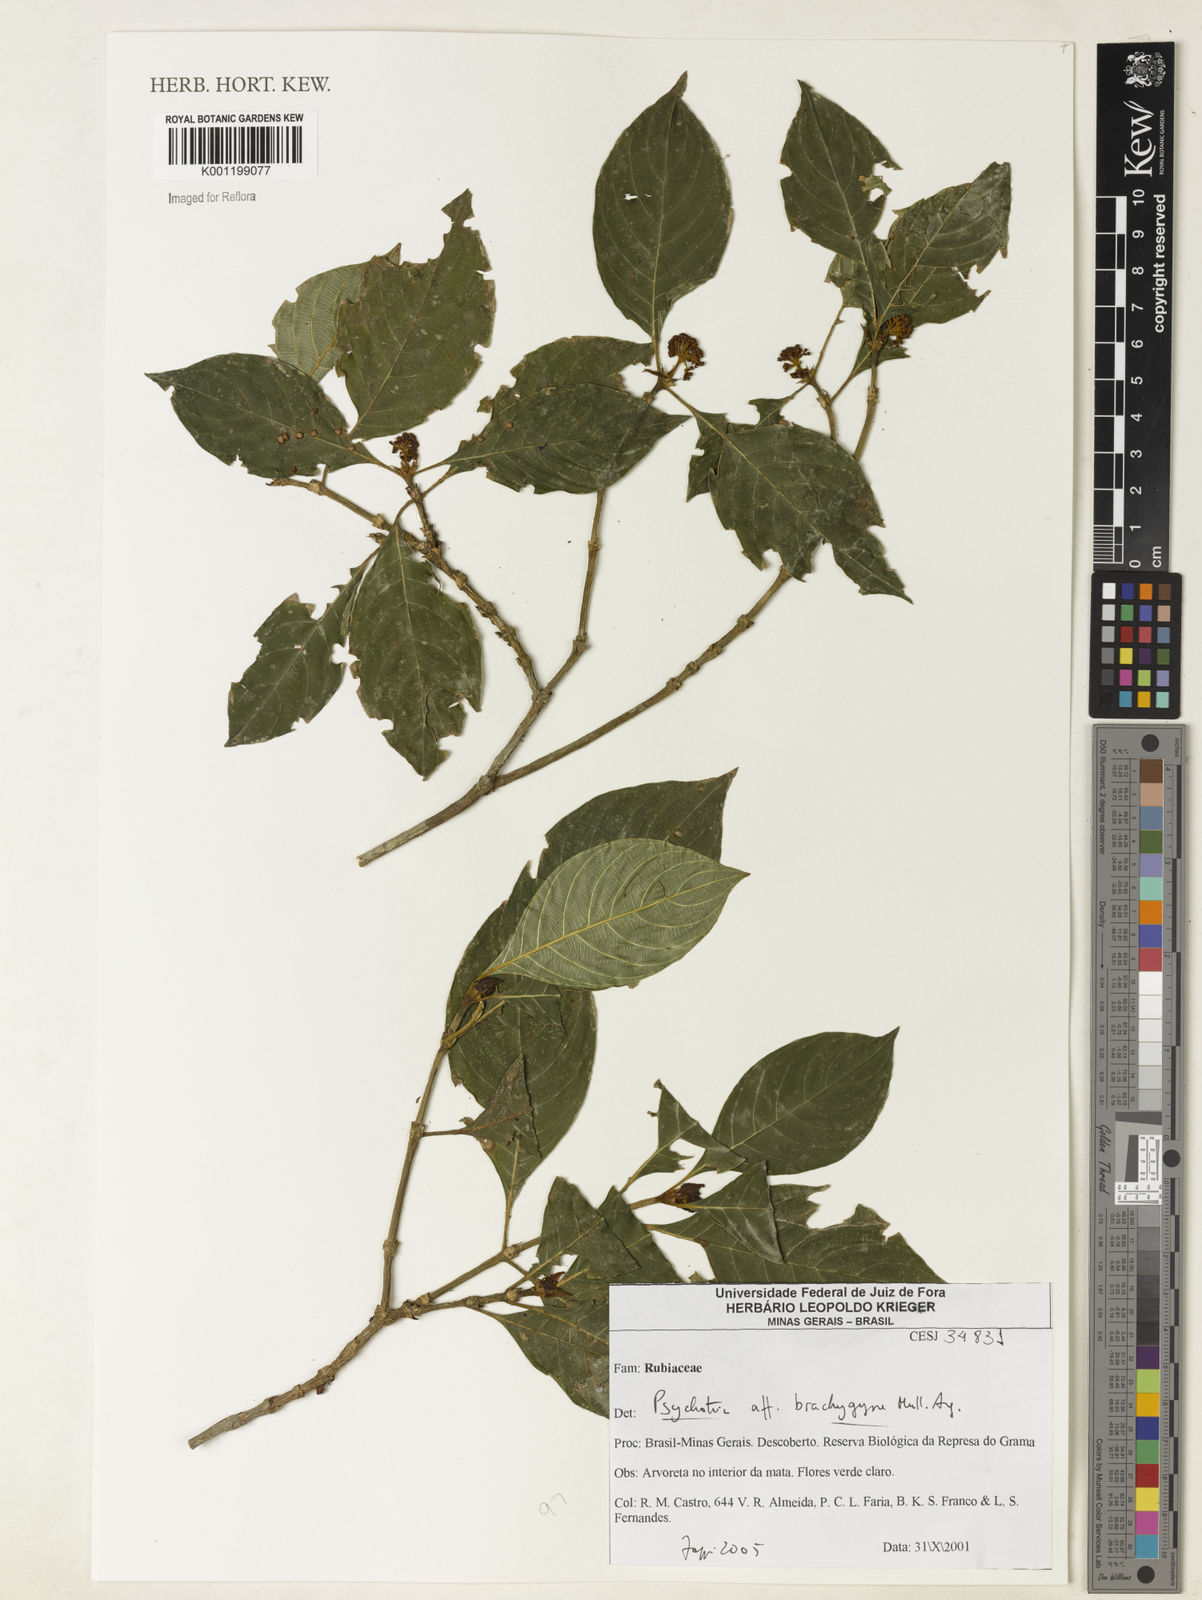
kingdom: Plantae
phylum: Tracheophyta
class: Magnoliopsida
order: Gentianales
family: Rubiaceae
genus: Psychotria
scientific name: Psychotria
